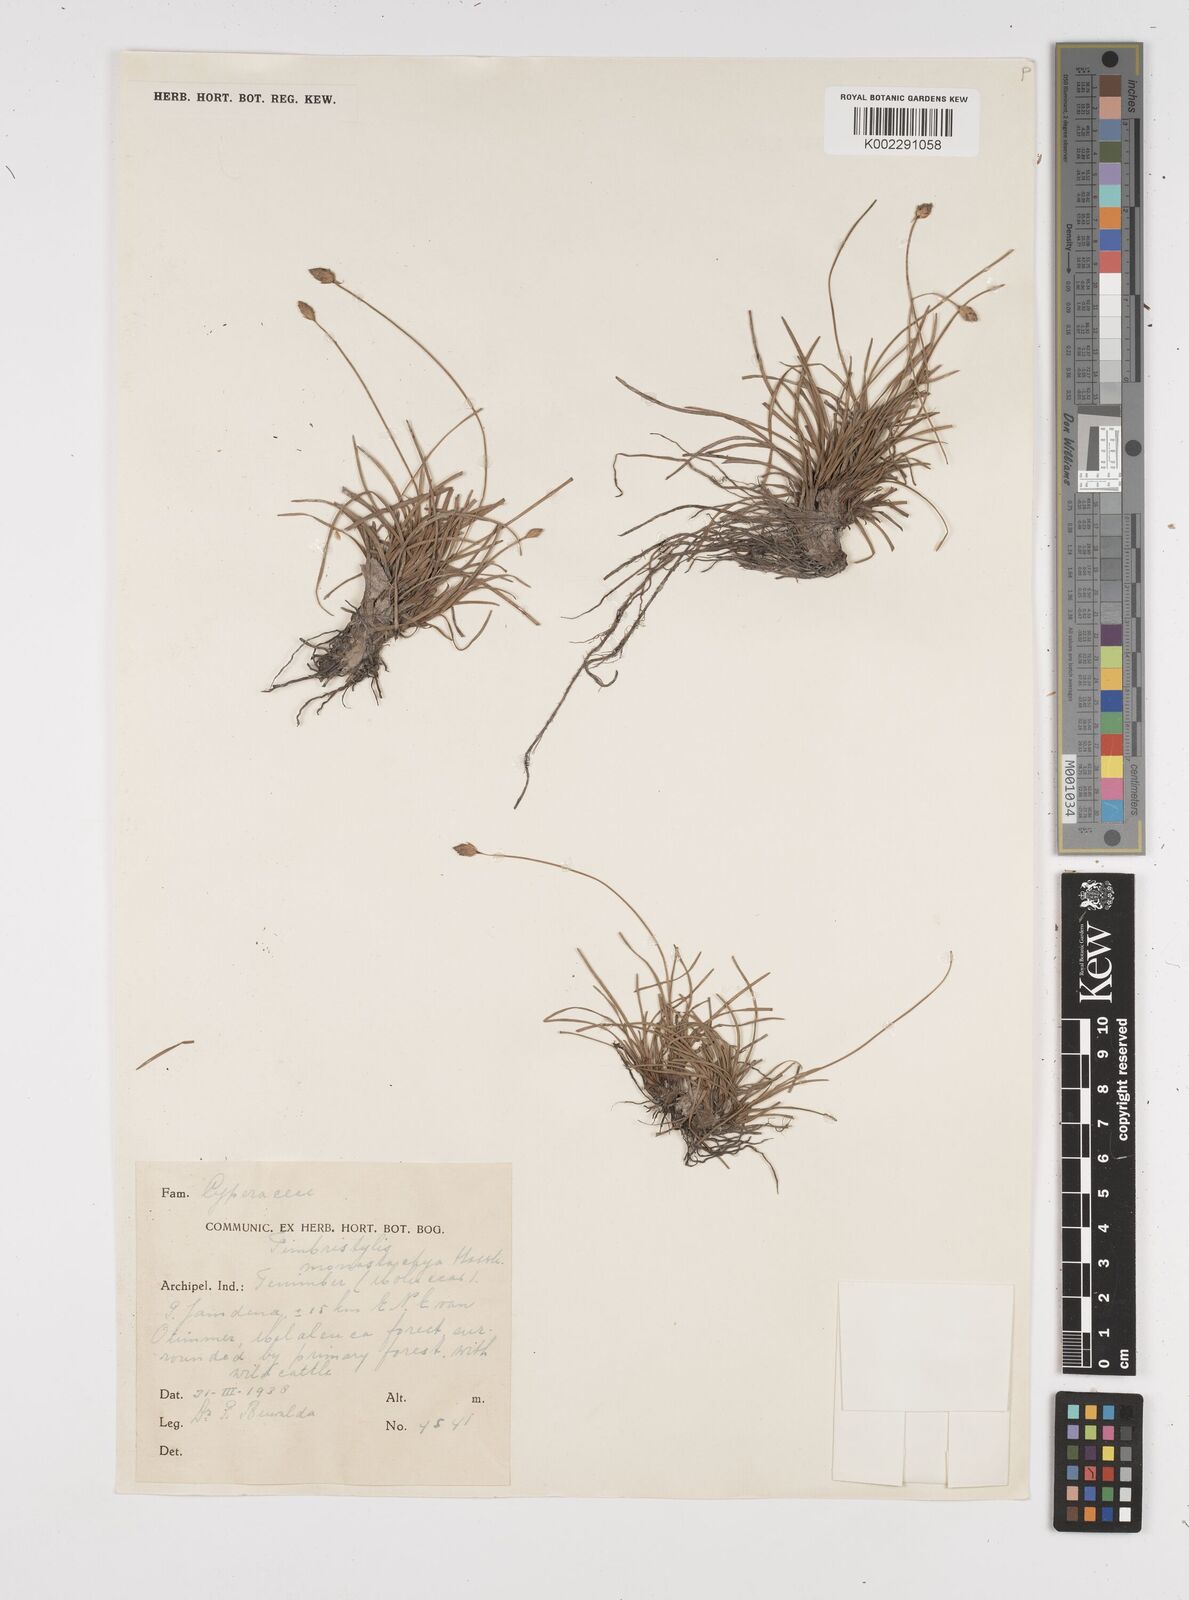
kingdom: Plantae
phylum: Tracheophyta
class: Liliopsida
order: Poales
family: Cyperaceae
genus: Abildgaardia
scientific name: Abildgaardia ovata
